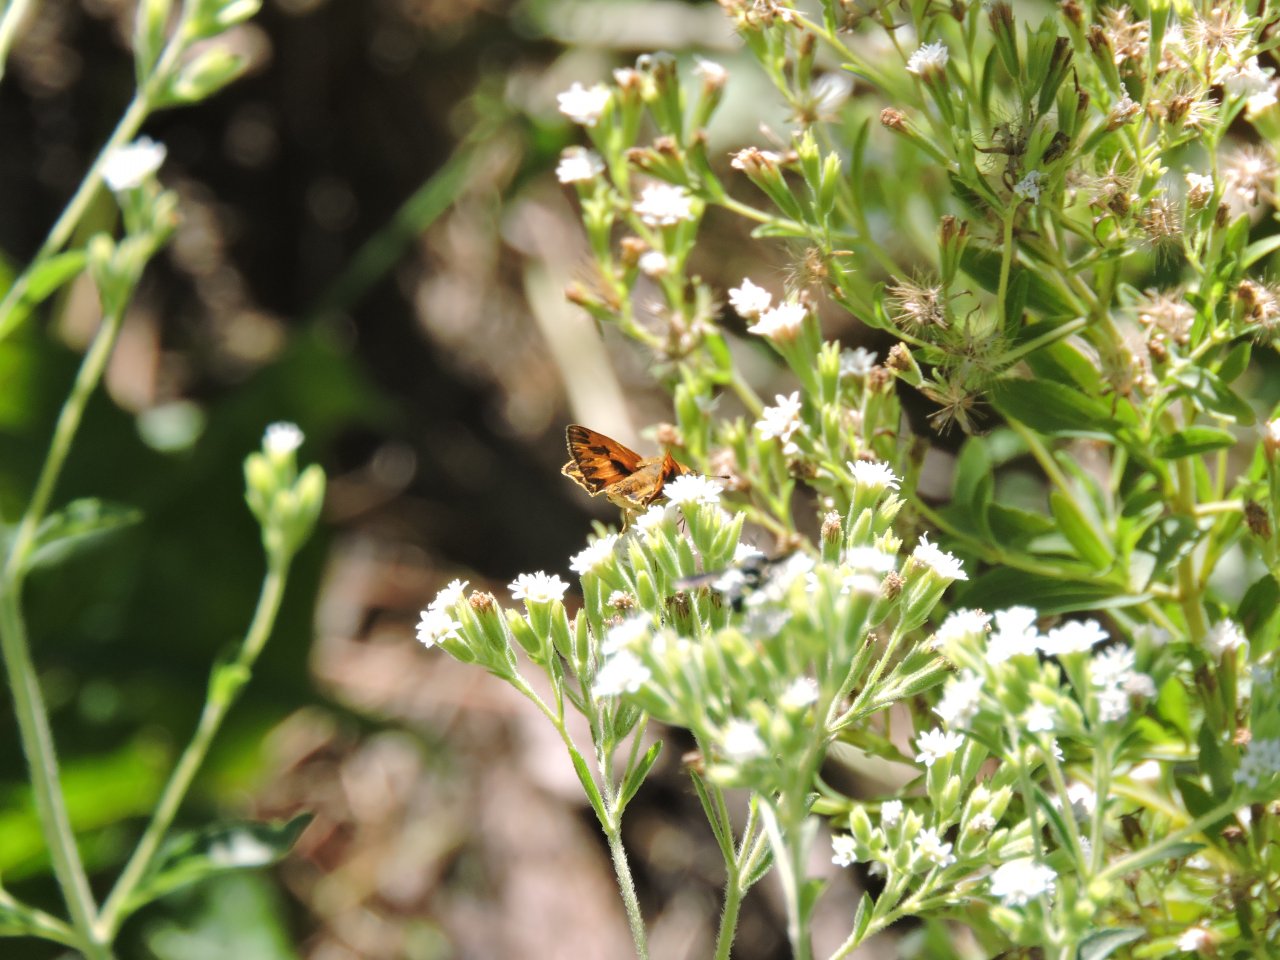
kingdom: Animalia
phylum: Arthropoda
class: Insecta
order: Lepidoptera
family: Hesperiidae
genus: Hylephila
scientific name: Hylephila phyleus
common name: Fiery Skipper
